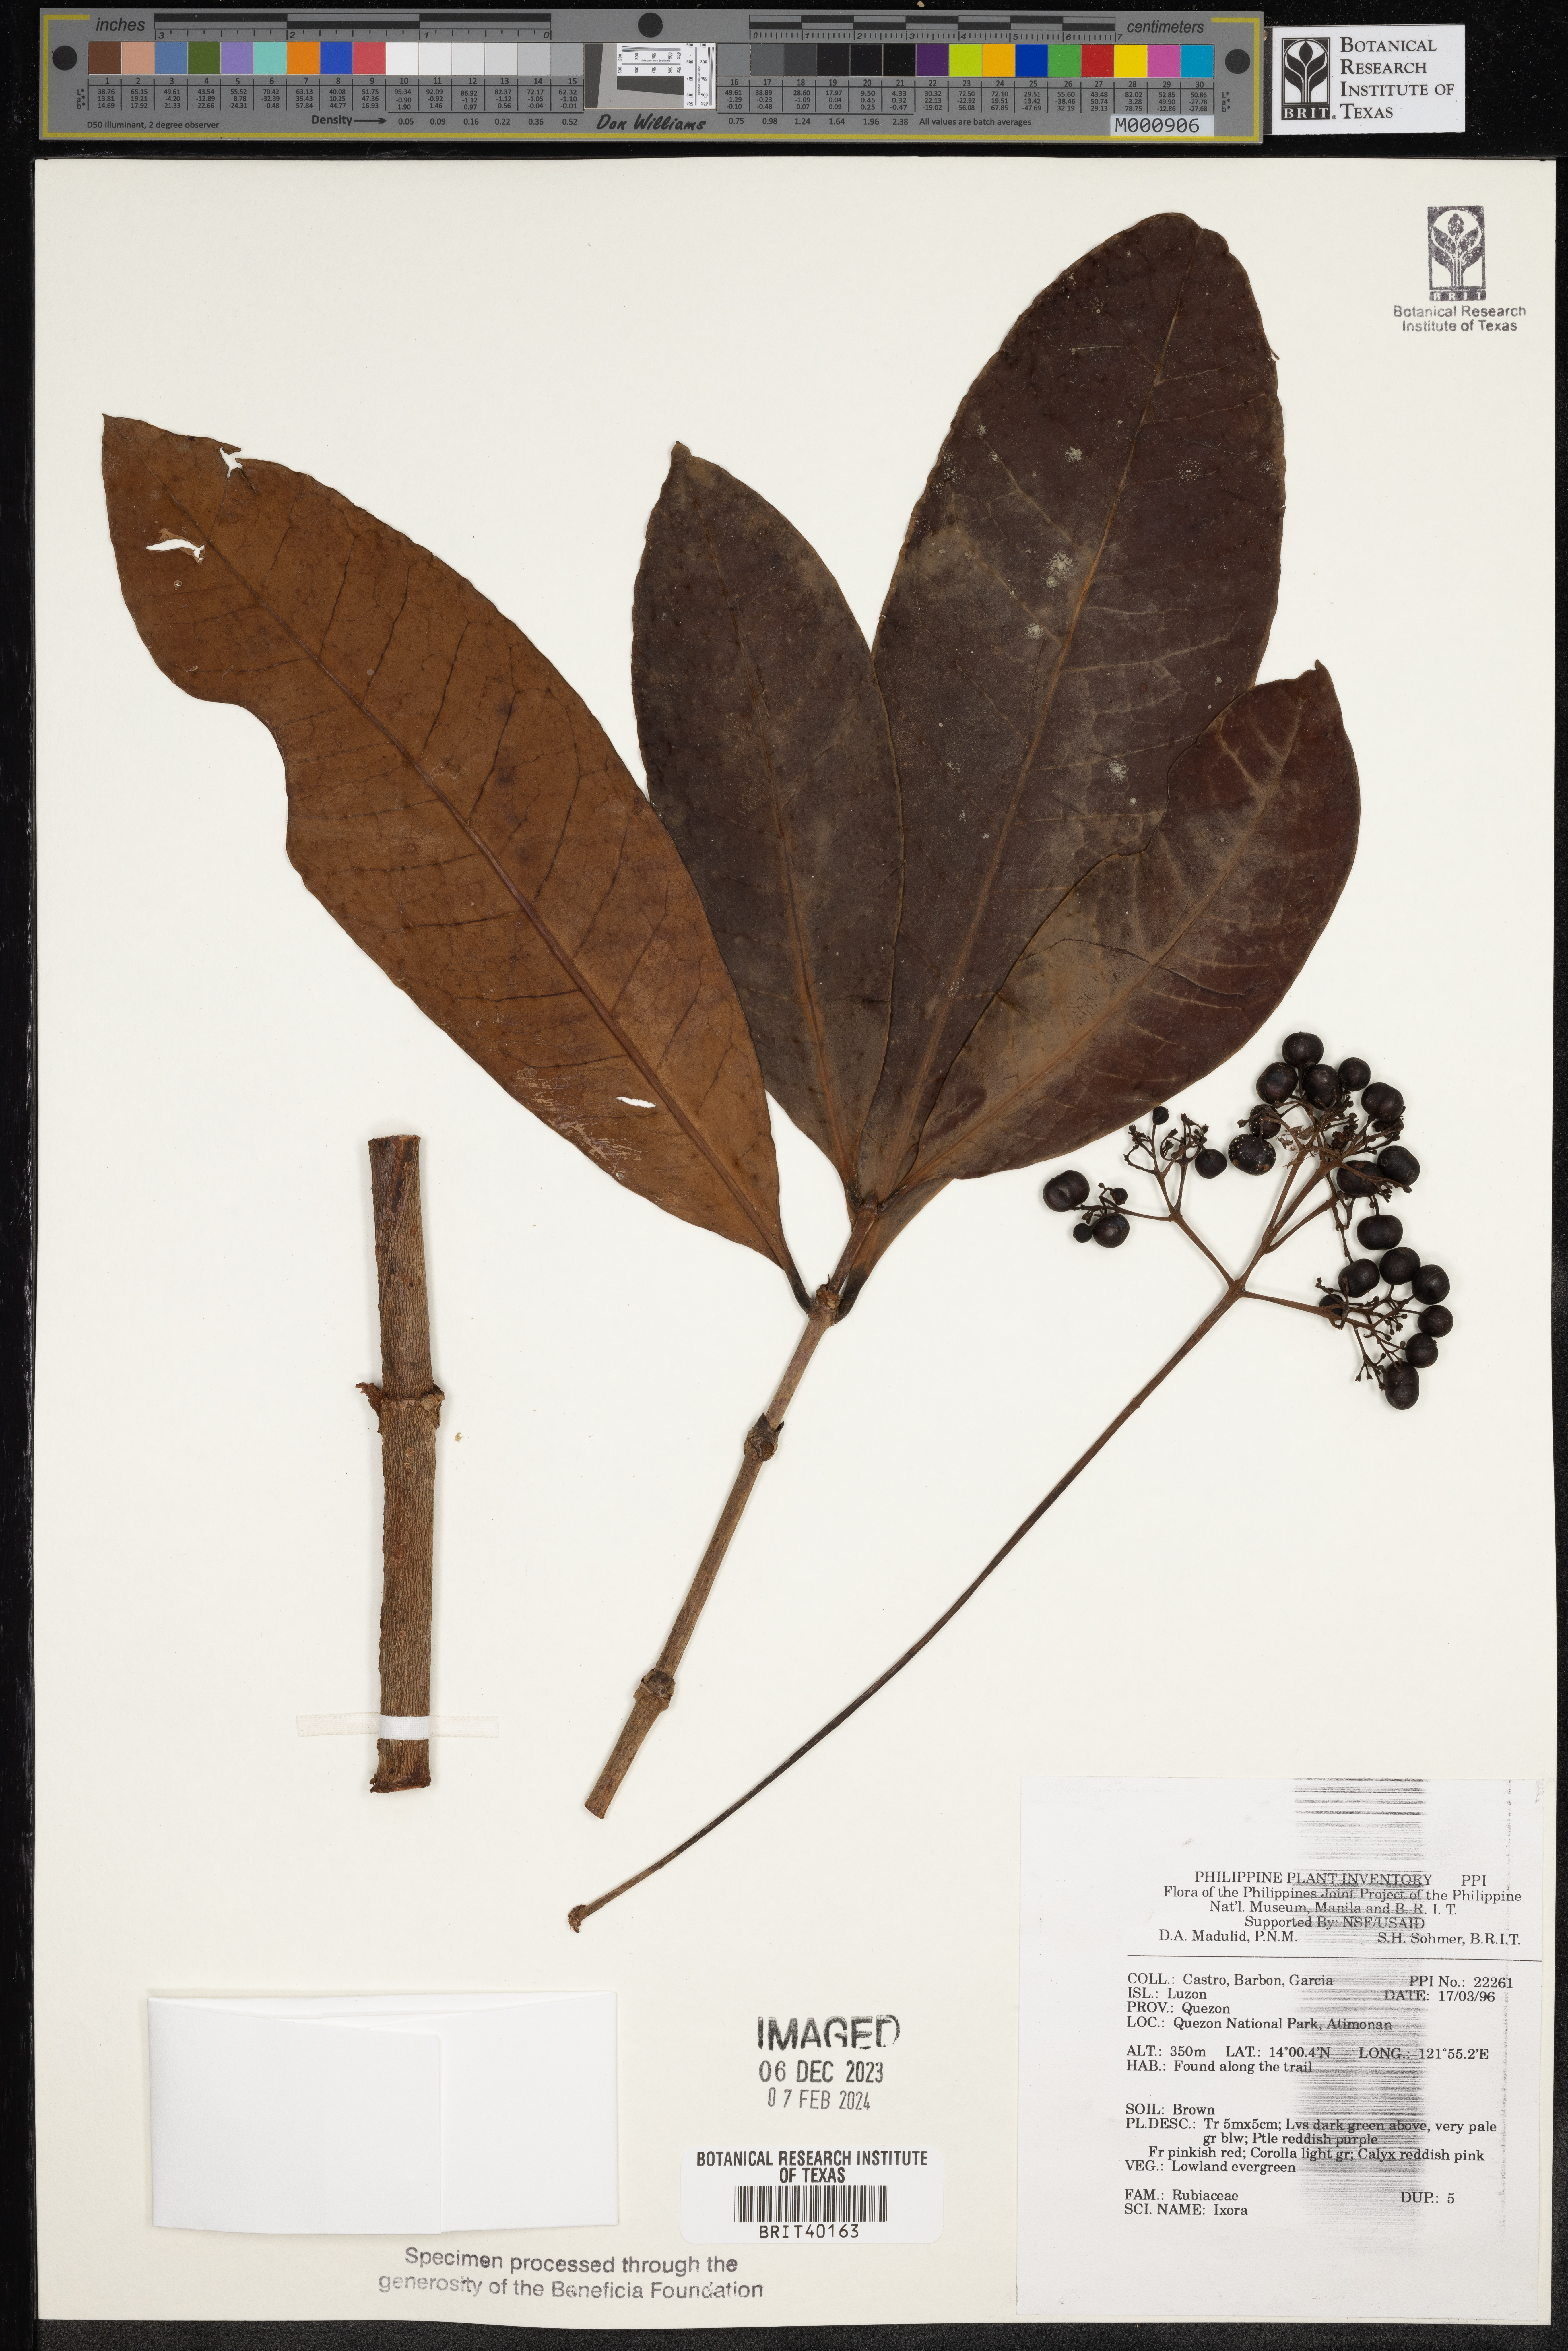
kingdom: Plantae
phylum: Tracheophyta
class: Magnoliopsida
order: Gentianales
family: Rubiaceae
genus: Ixora
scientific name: Ixora
